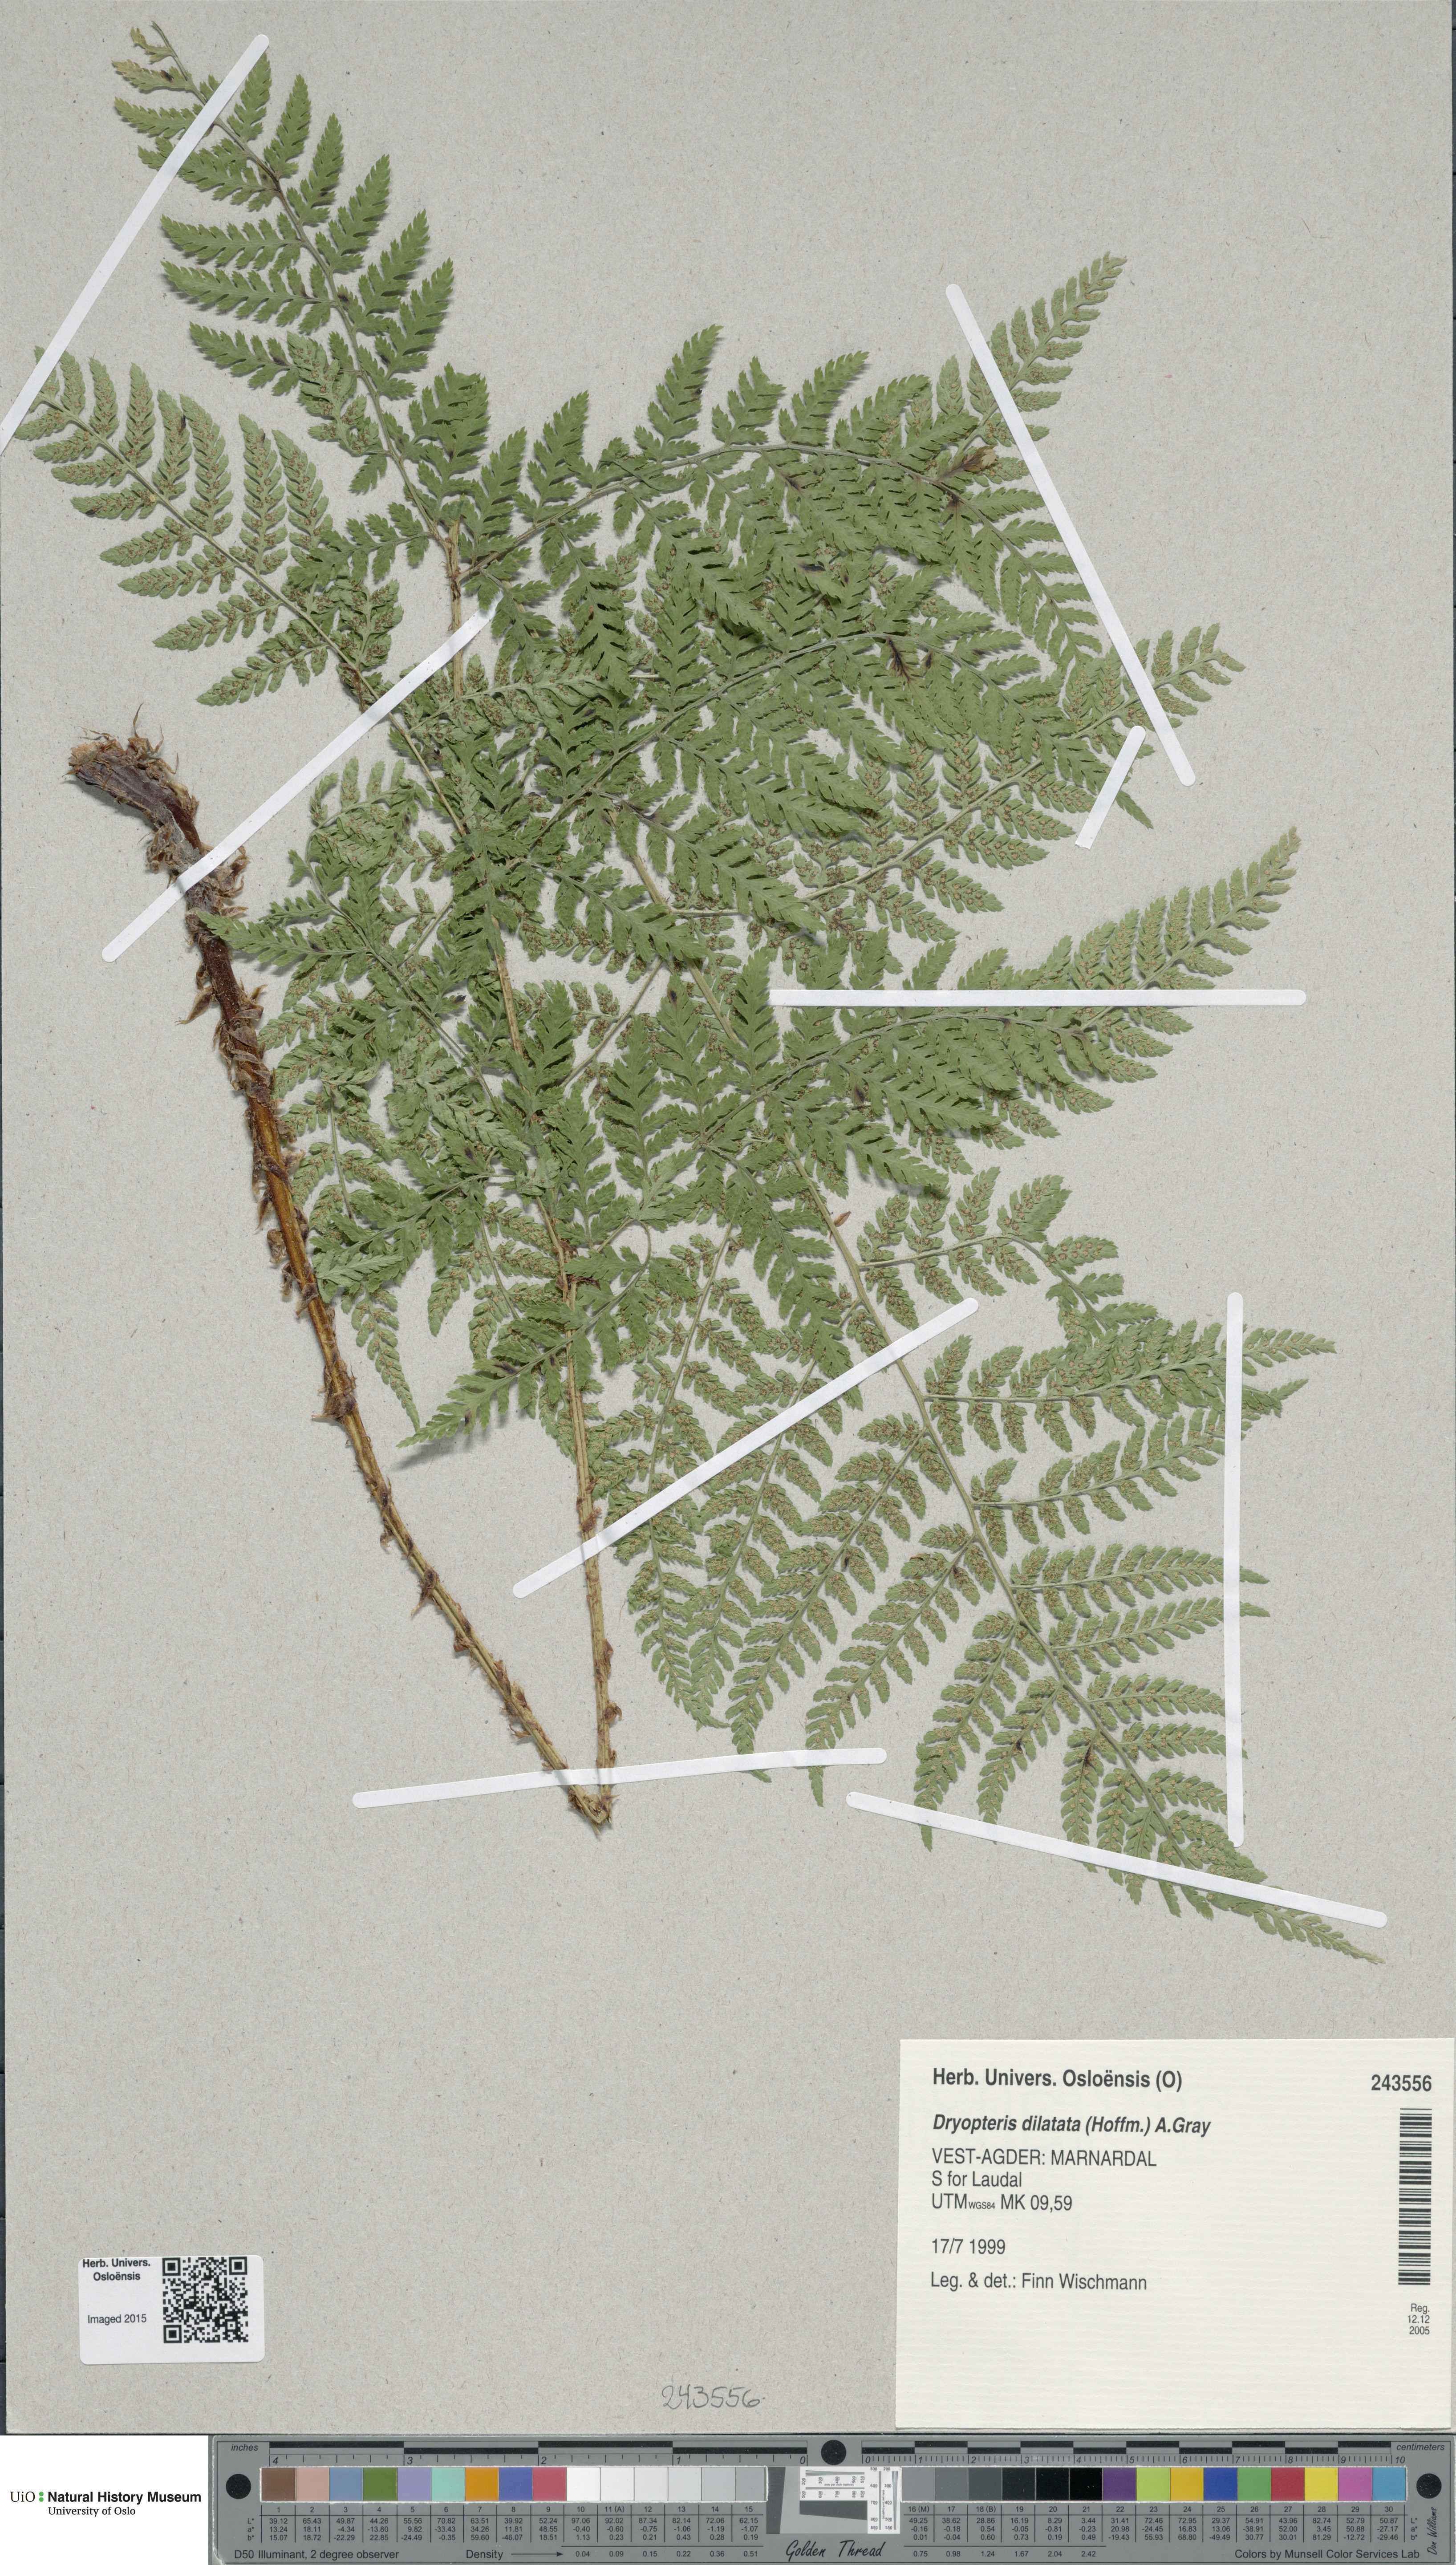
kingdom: Plantae
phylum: Tracheophyta
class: Polypodiopsida
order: Polypodiales
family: Dryopteridaceae
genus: Dryopteris
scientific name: Dryopteris dilatata
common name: Broad buckler-fern
